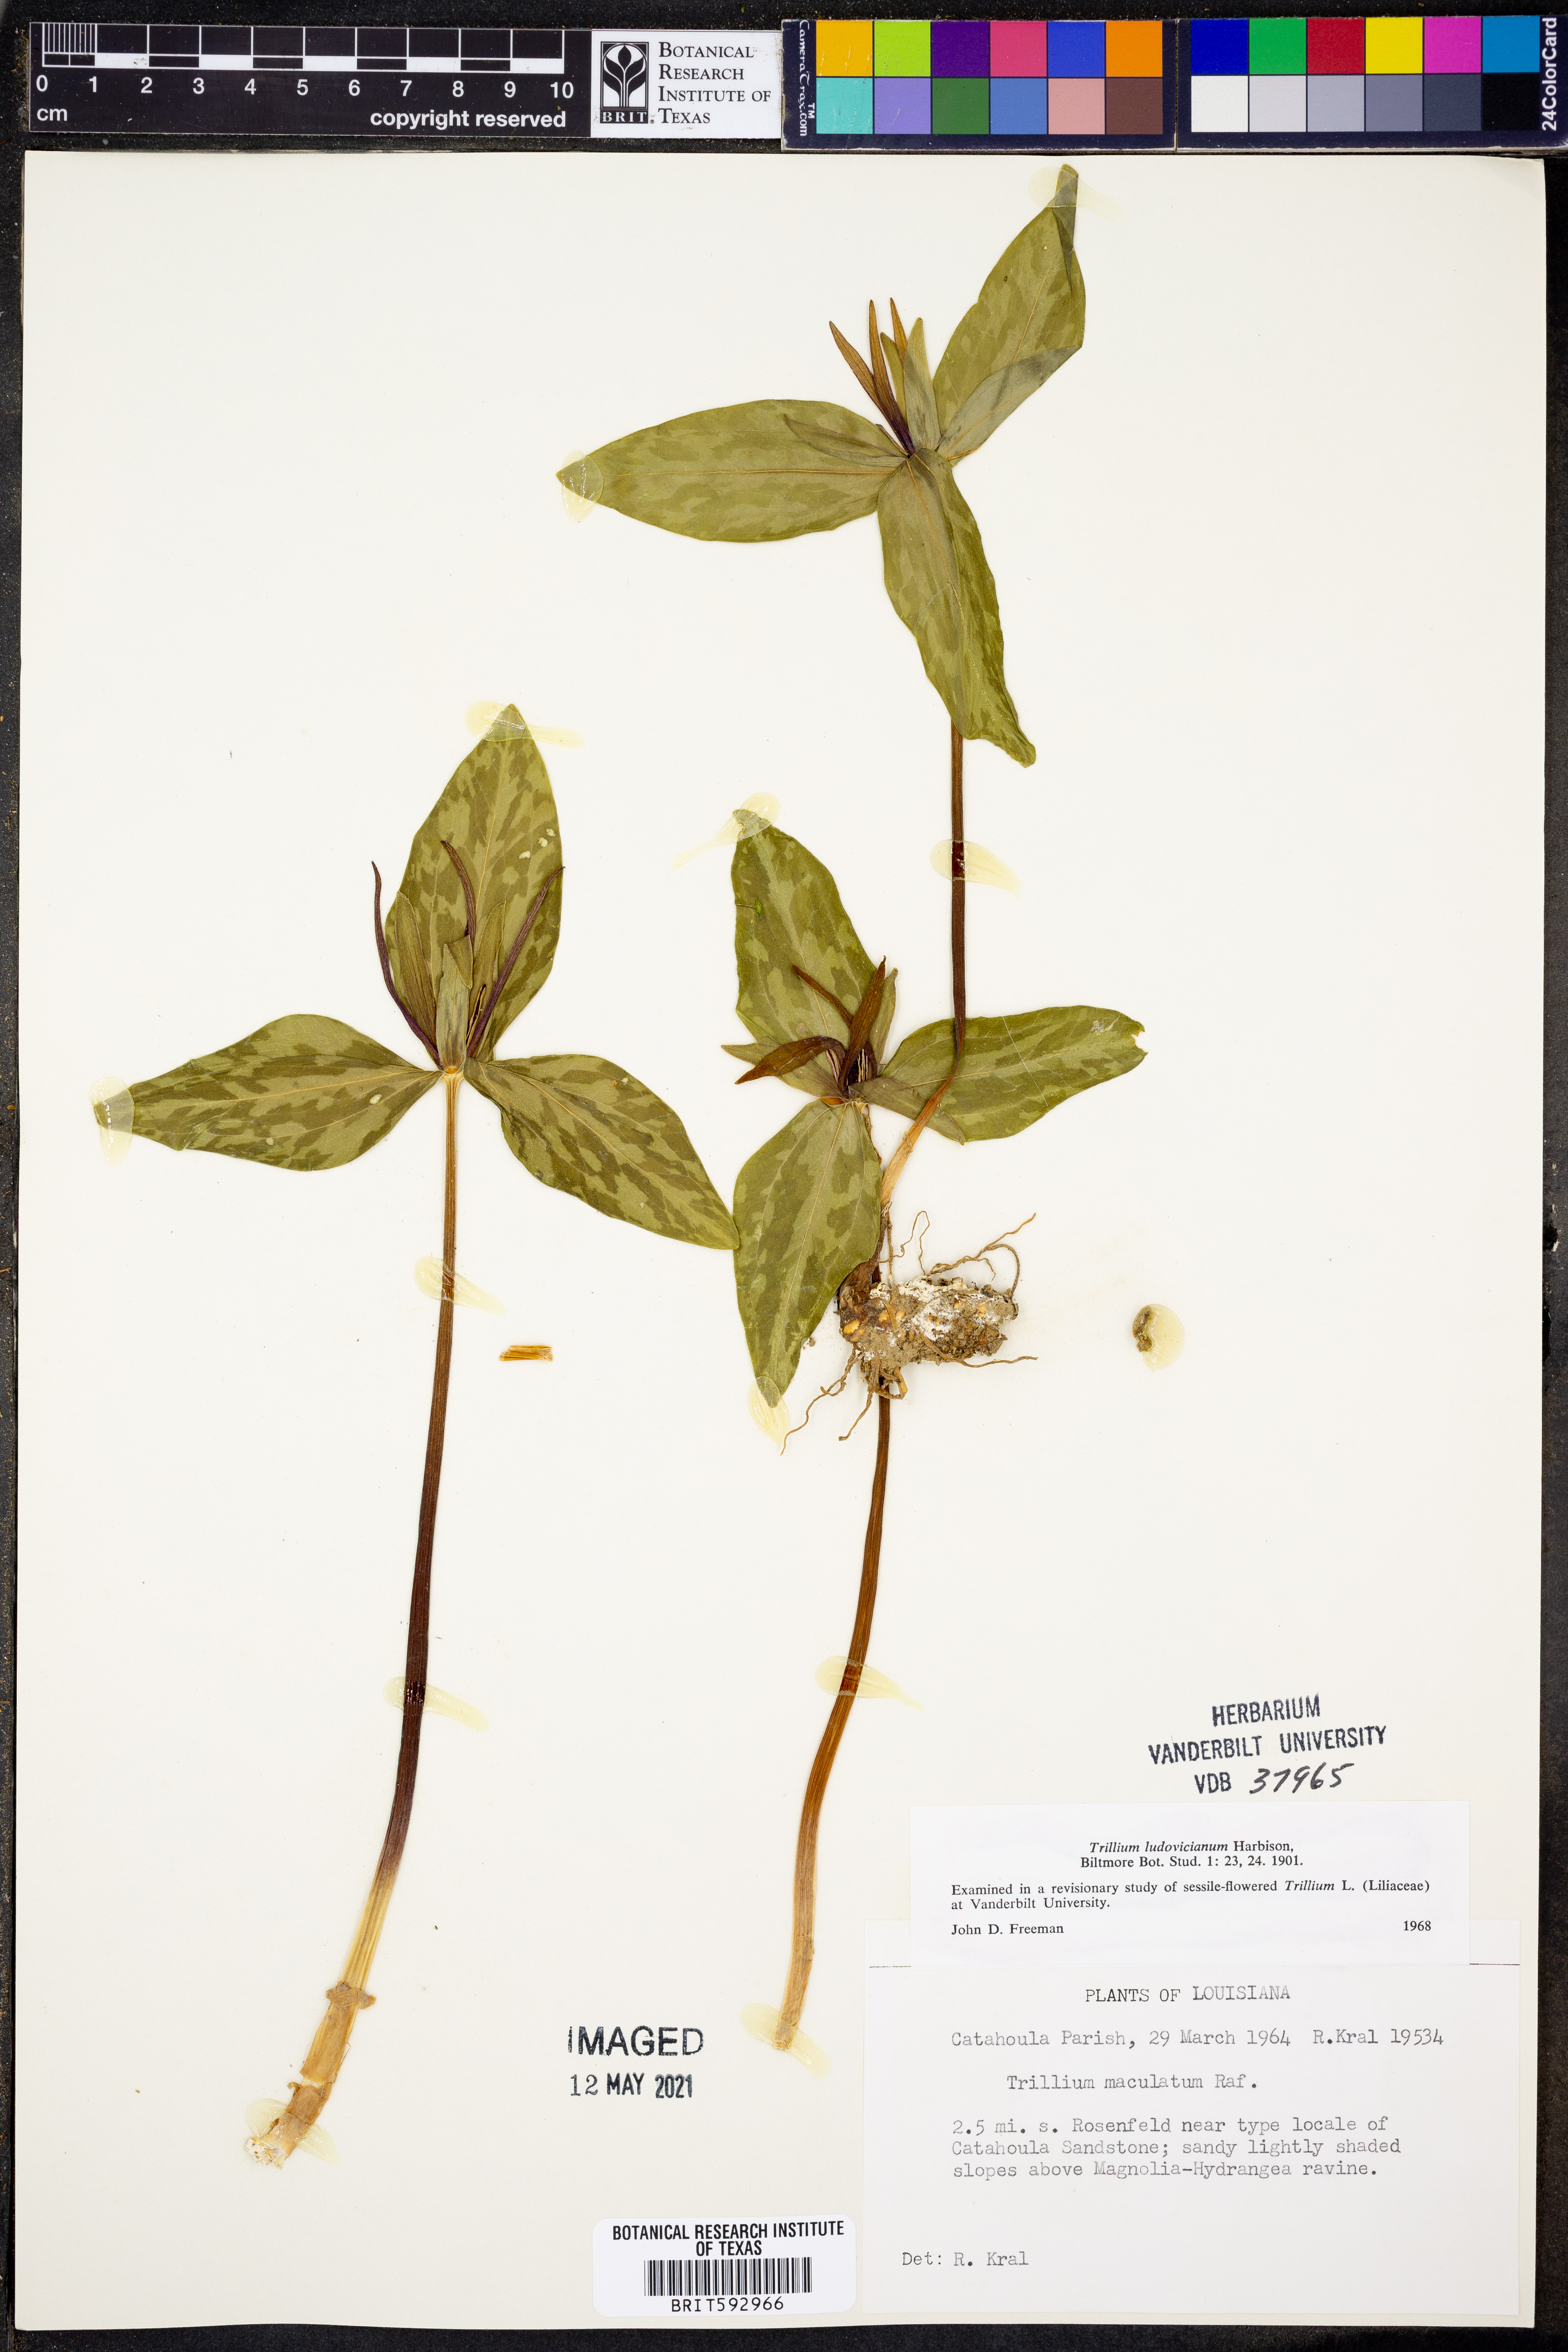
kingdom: Plantae
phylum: Tracheophyta
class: Liliopsida
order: Liliales
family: Melanthiaceae
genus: Trillium
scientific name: Trillium ludovicianum
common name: Louisiana toadshade
